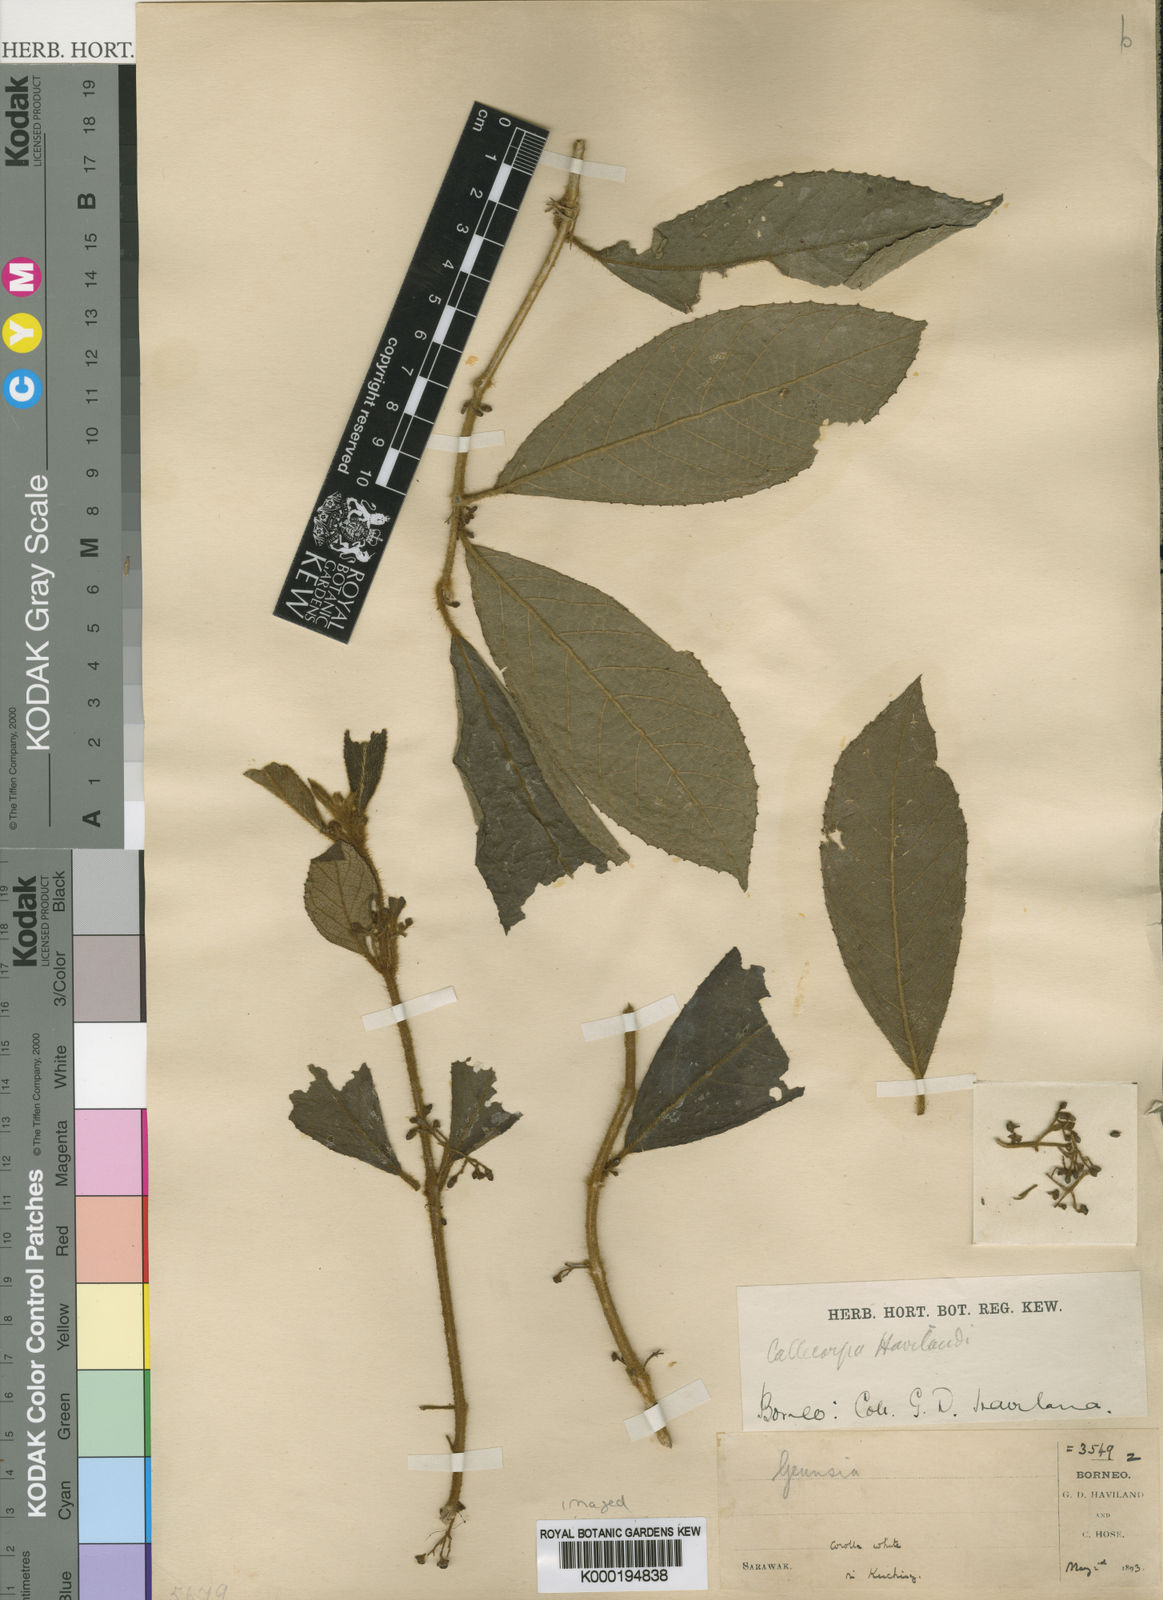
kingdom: Plantae
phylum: Tracheophyta
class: Magnoliopsida
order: Lamiales
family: Lamiaceae
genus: Callicarpa
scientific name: Callicarpa havilandii
